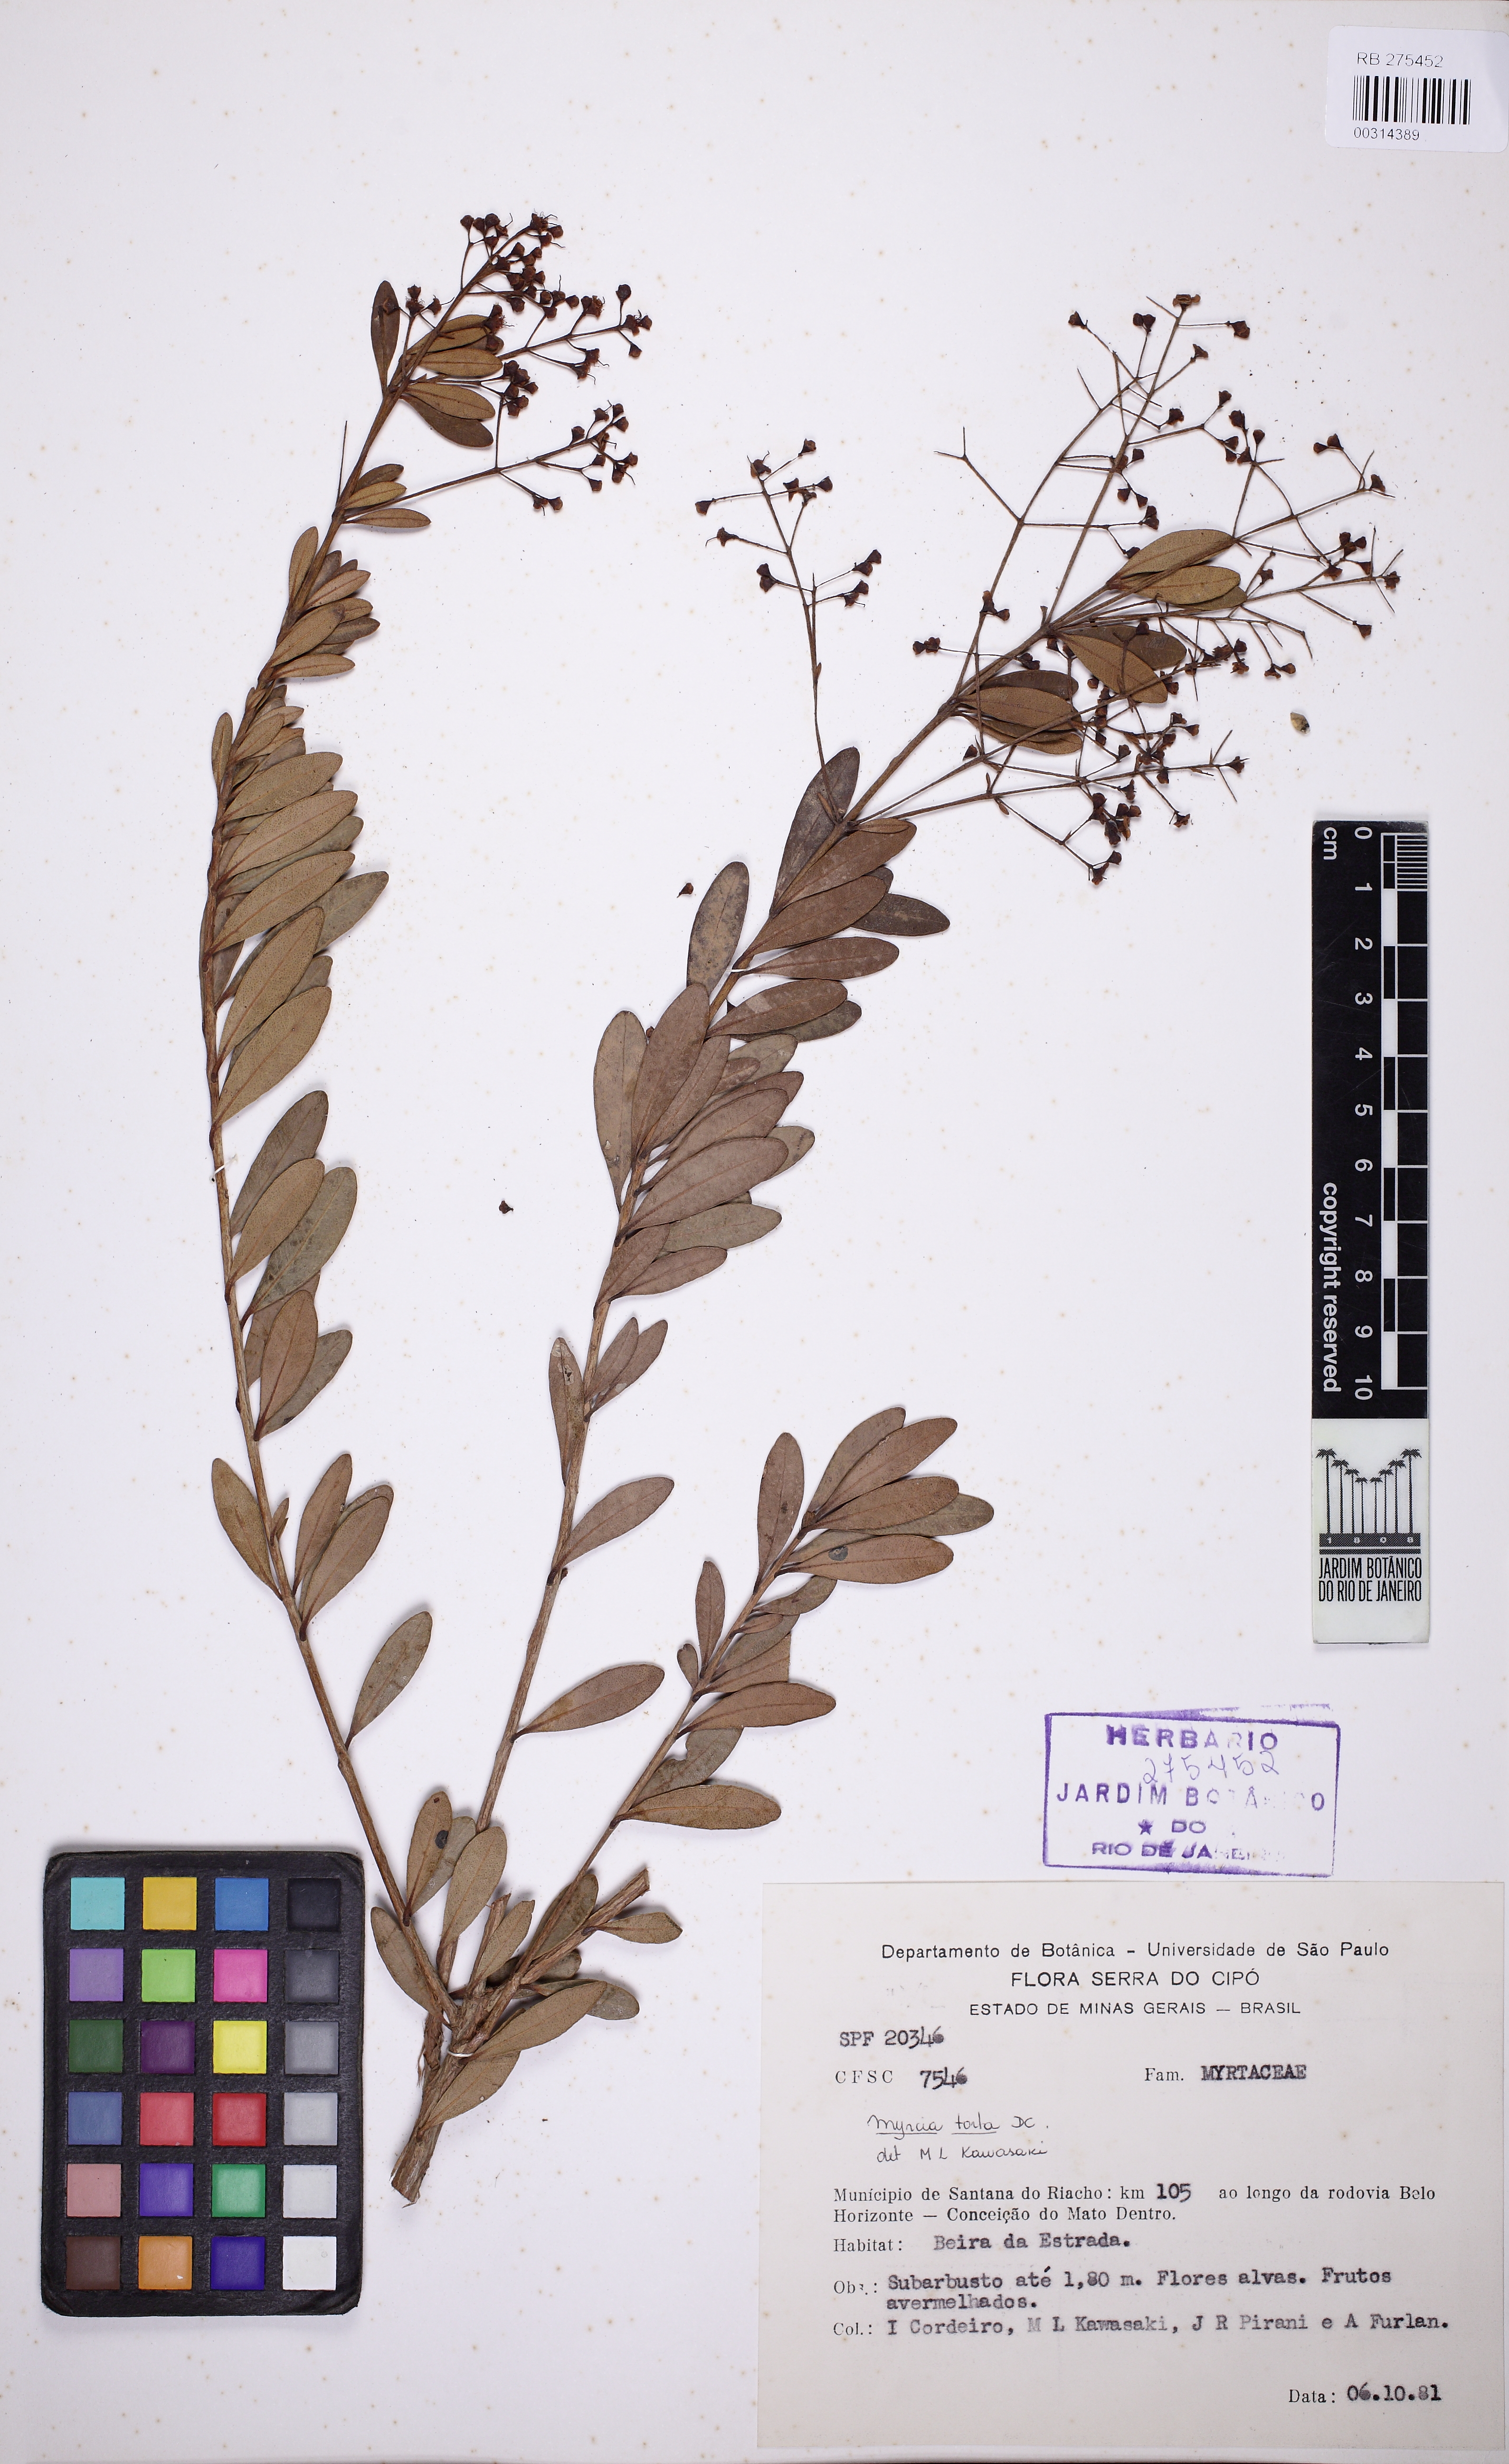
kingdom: Plantae
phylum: Tracheophyta
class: Magnoliopsida
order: Myrtales
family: Myrtaceae
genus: Myrcia
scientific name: Myrcia guianensis
